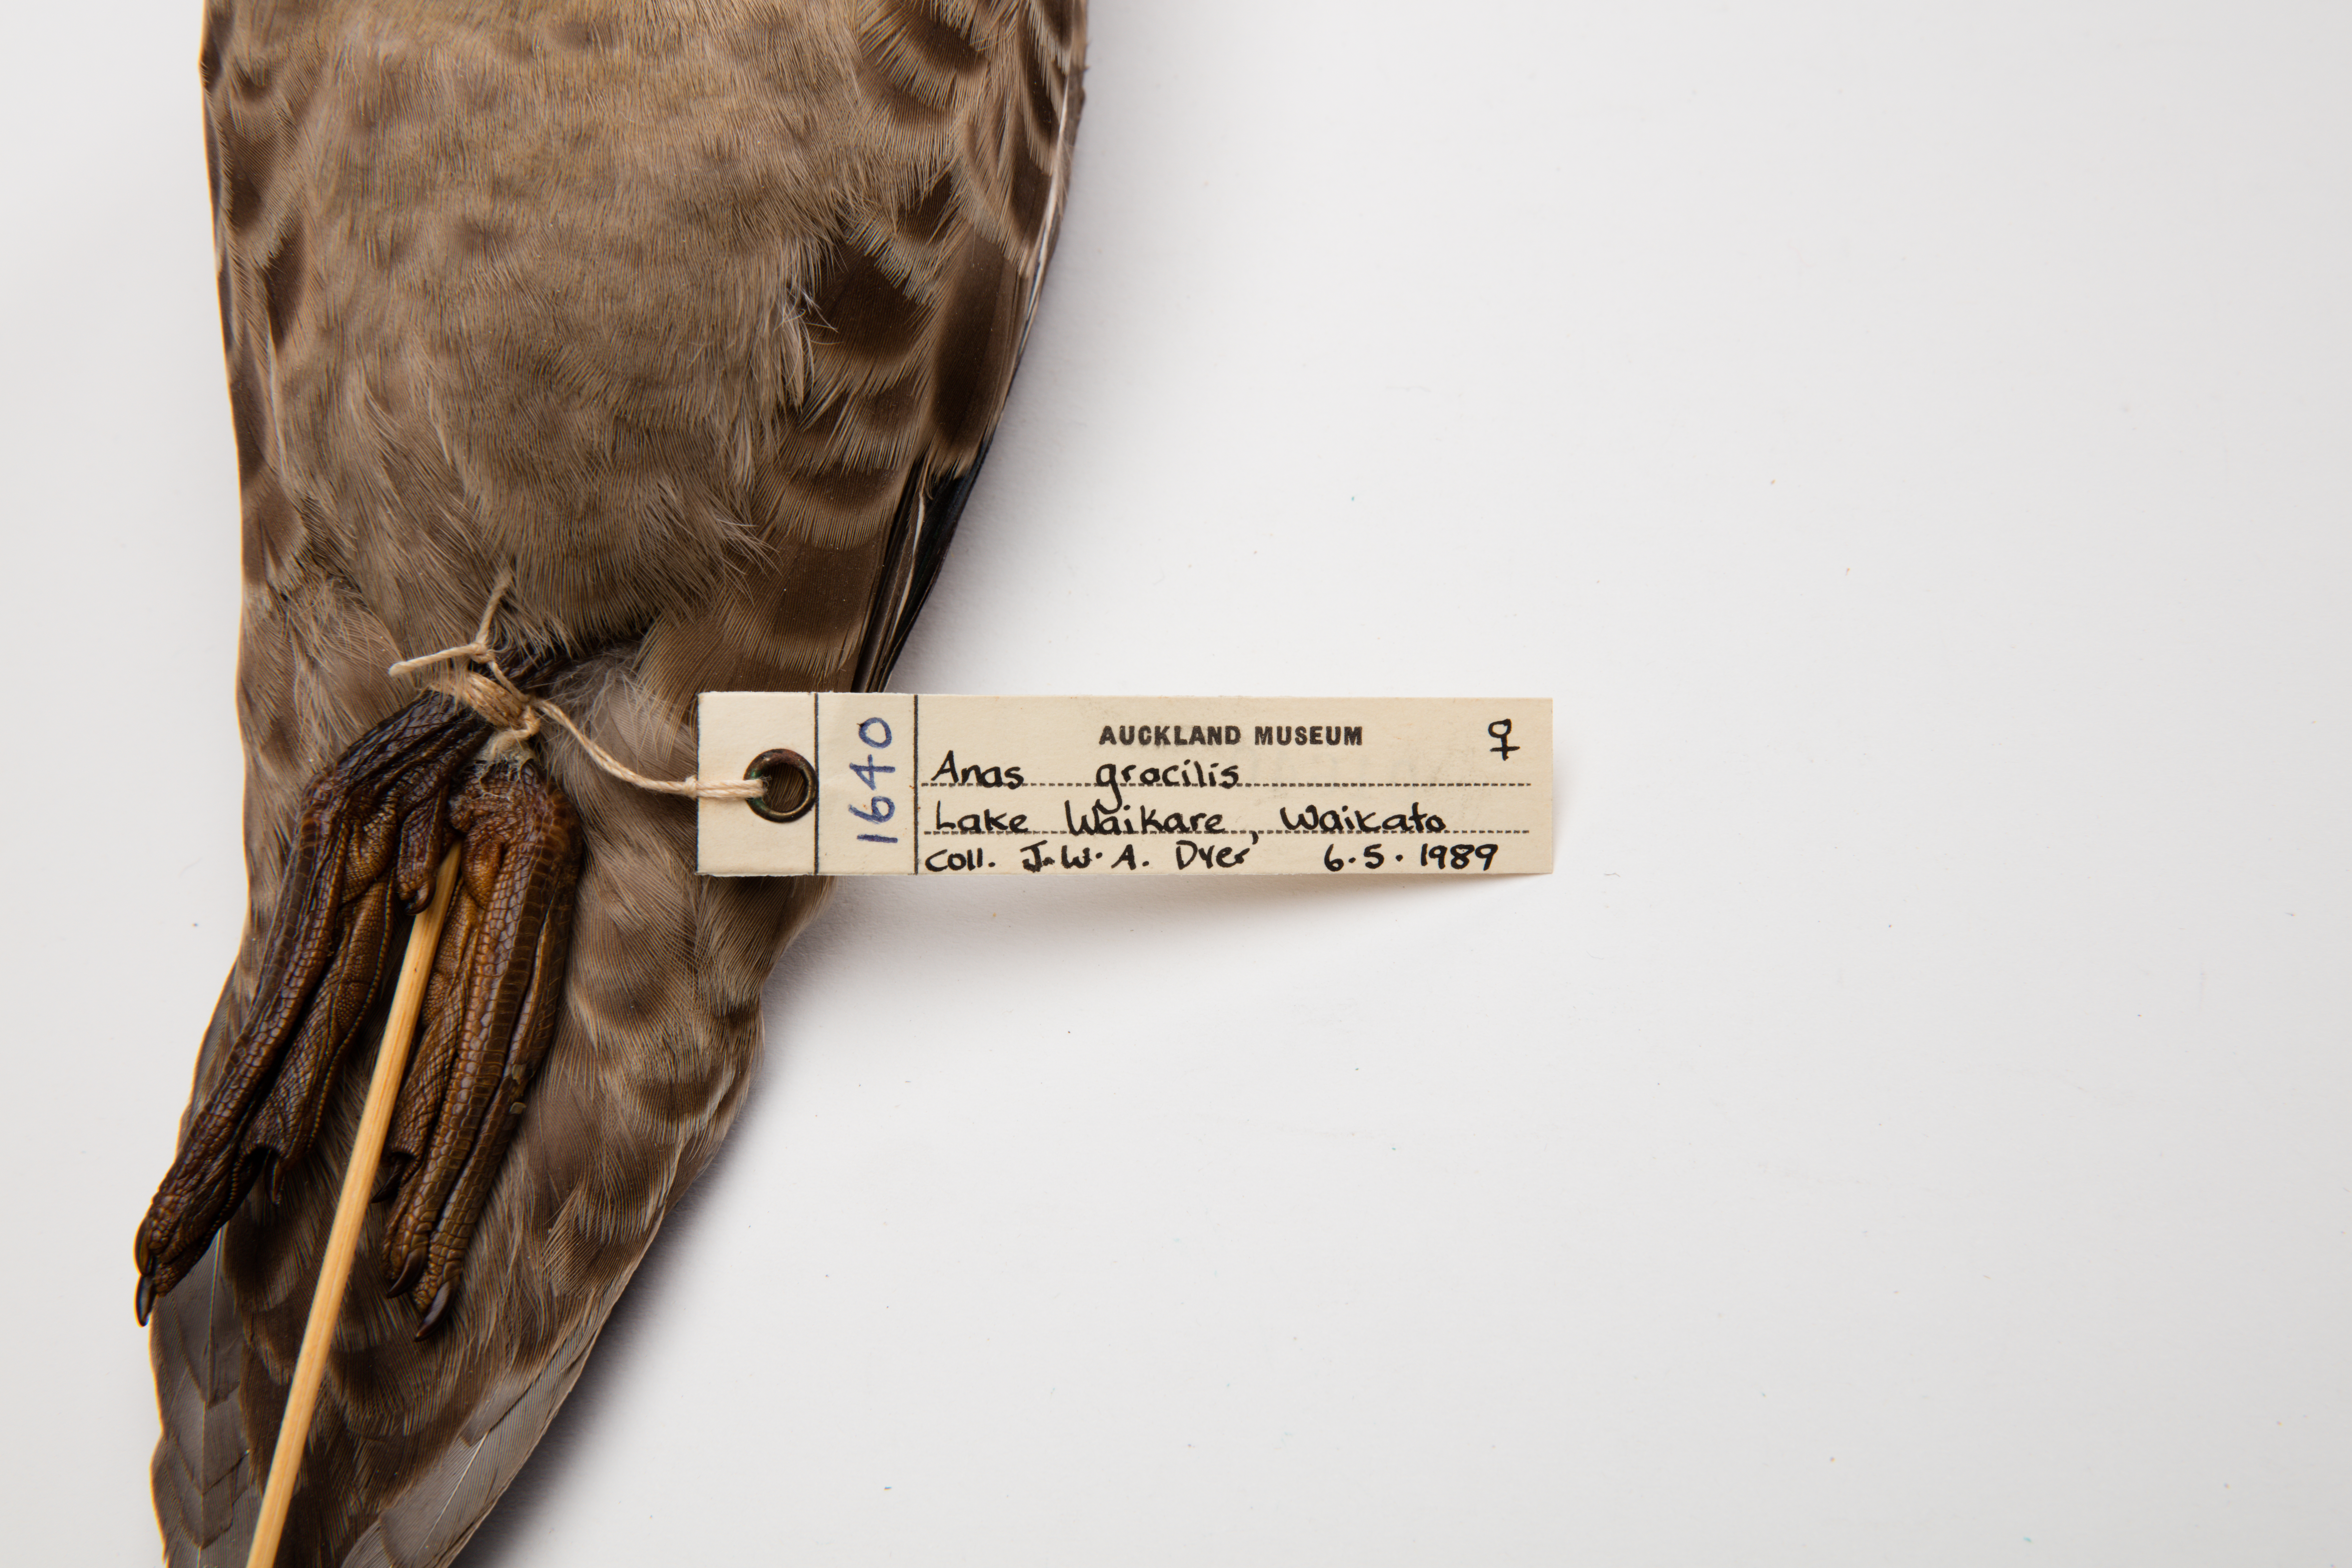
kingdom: Animalia
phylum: Chordata
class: Aves
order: Anseriformes
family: Anatidae
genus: Anas
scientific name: Anas gracilis
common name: Grey teal
